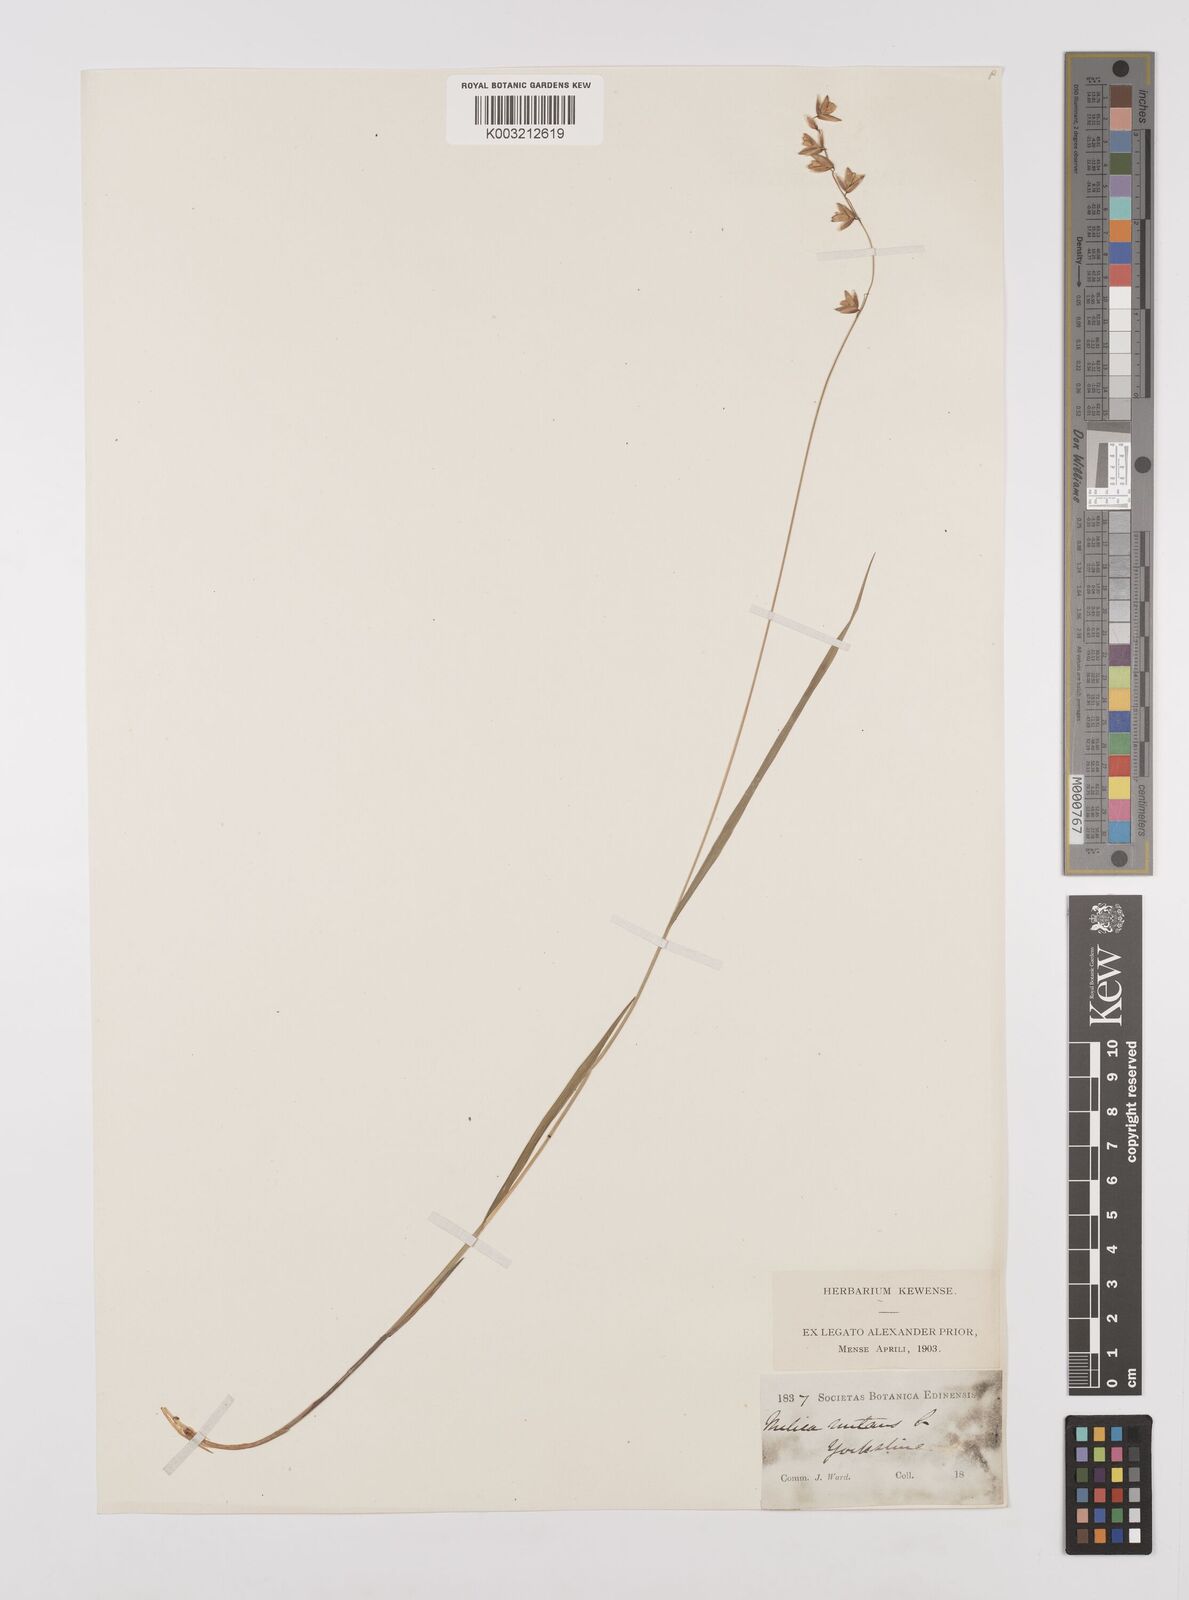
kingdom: Plantae
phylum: Tracheophyta
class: Liliopsida
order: Poales
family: Poaceae
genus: Melica
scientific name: Melica
